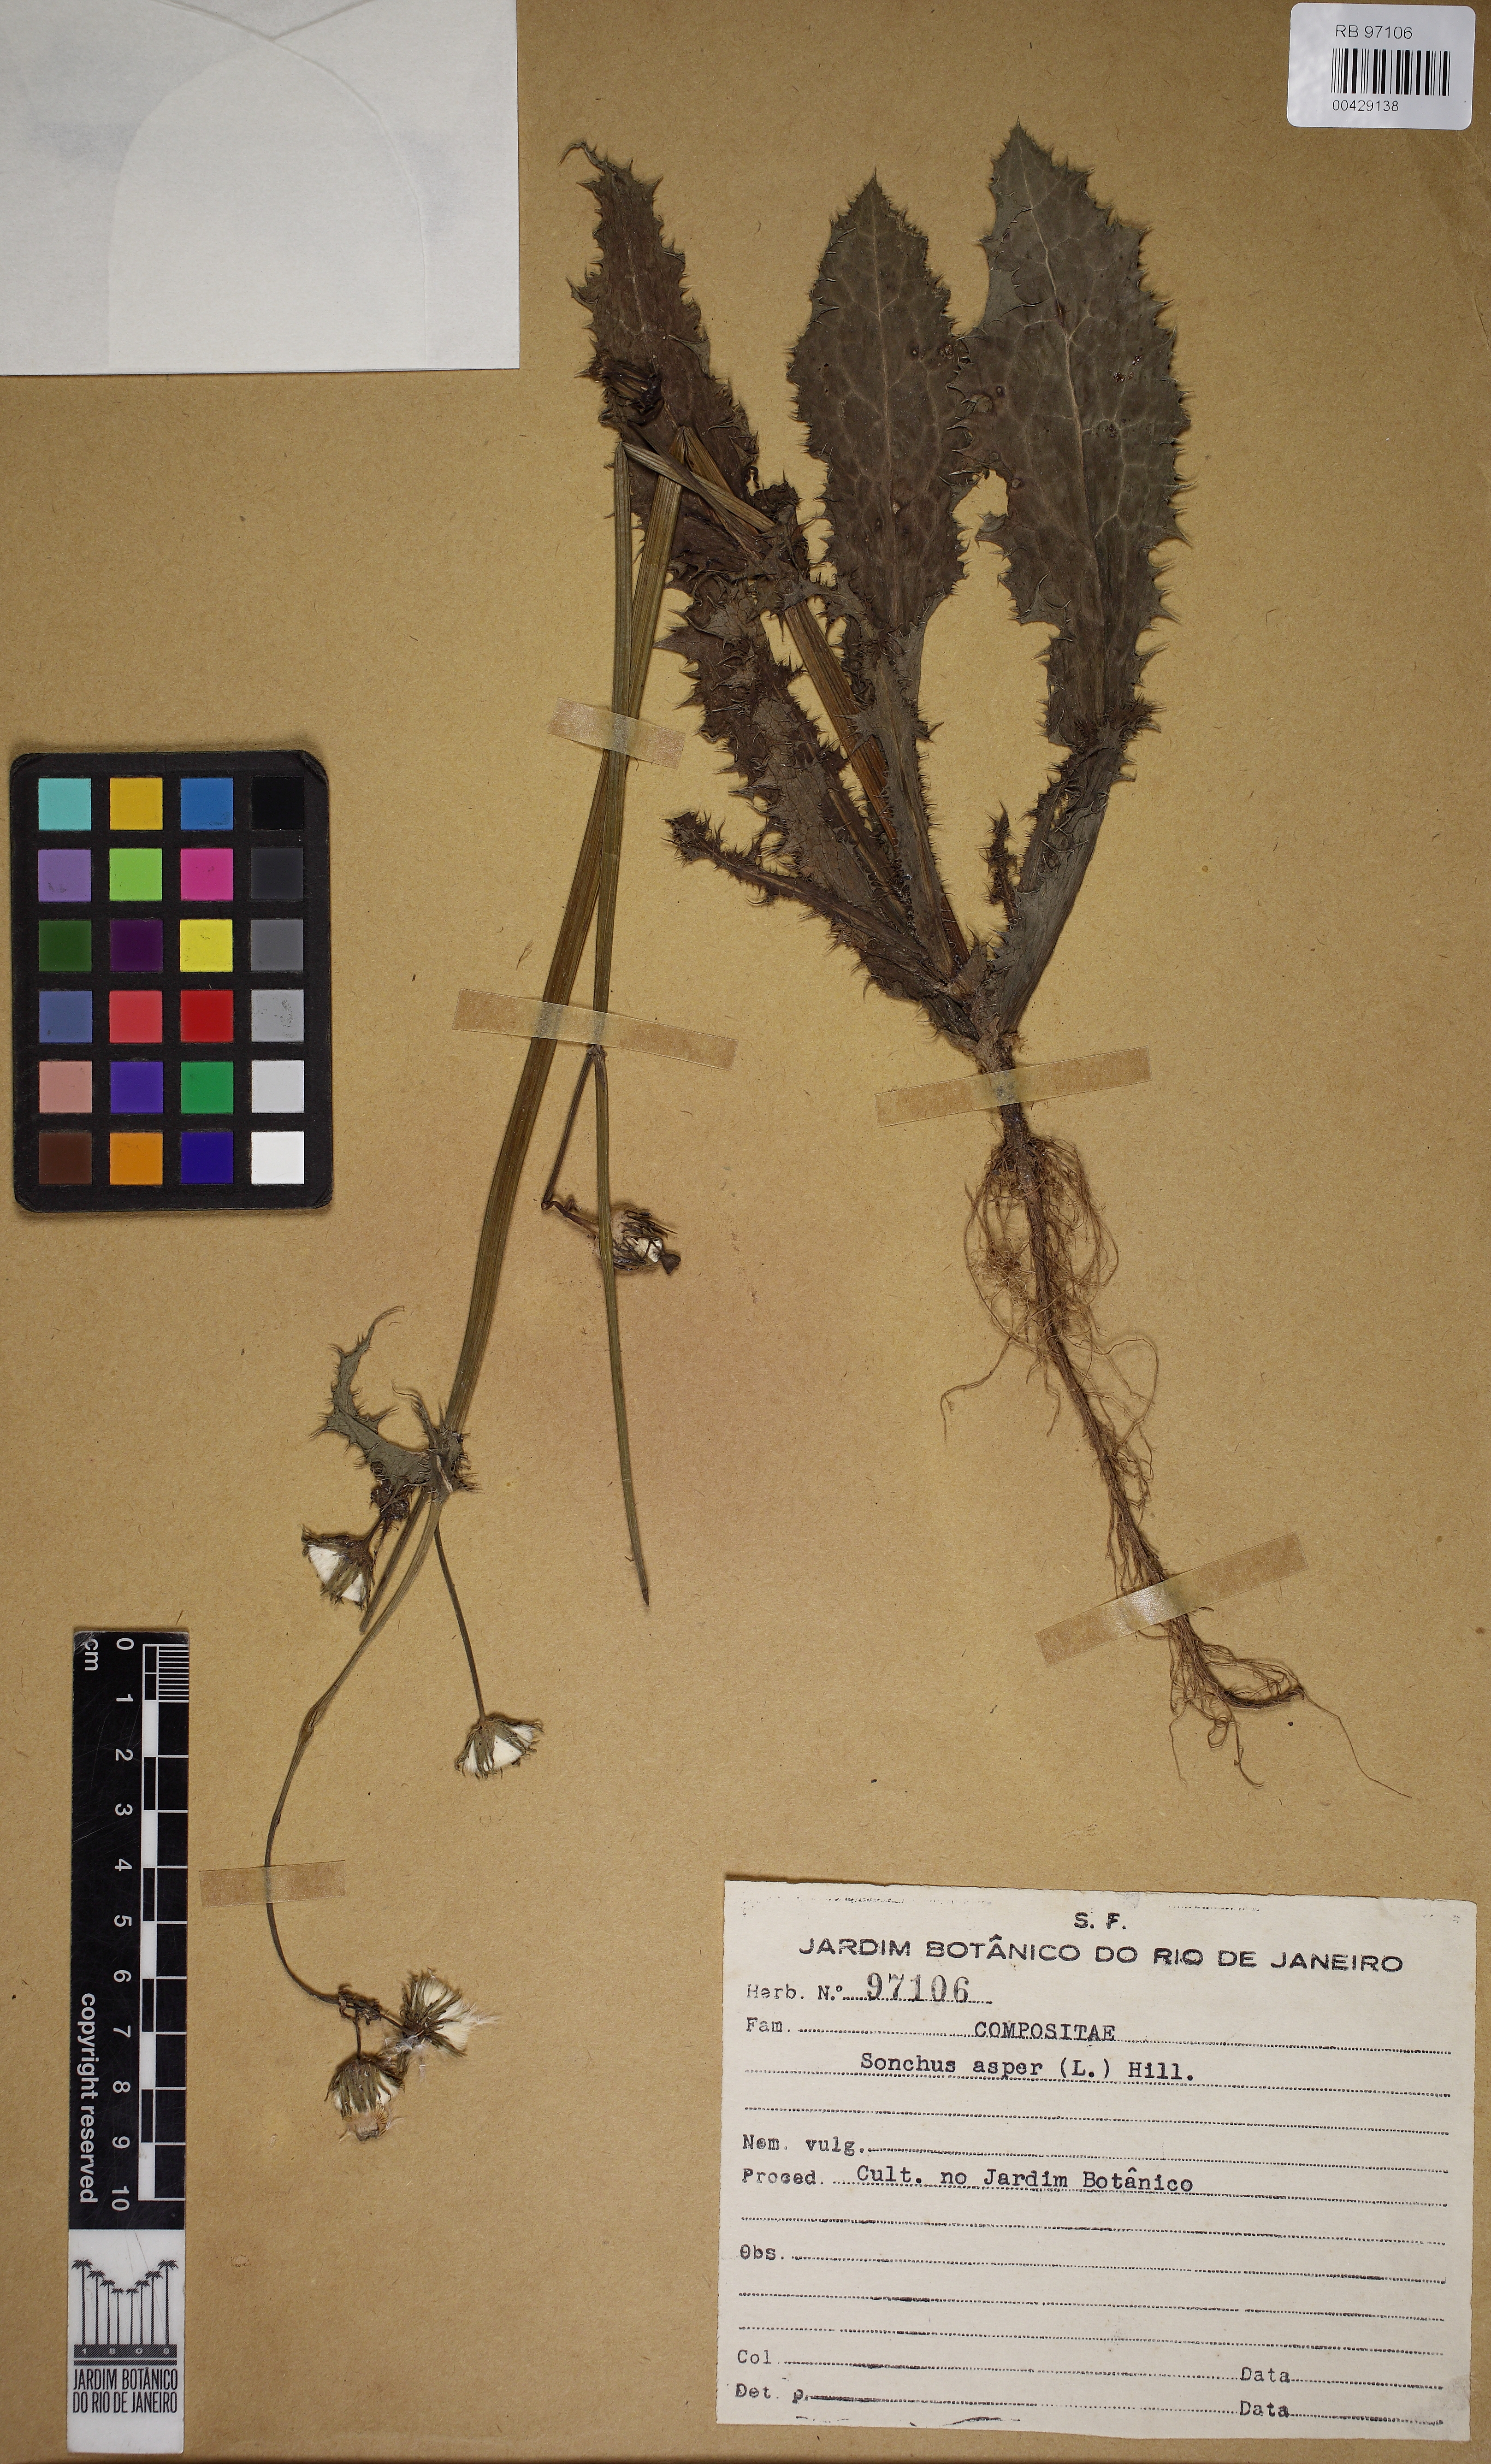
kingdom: Plantae
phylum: Tracheophyta
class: Magnoliopsida
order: Asterales
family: Asteraceae
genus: Sonchus
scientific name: Sonchus asper
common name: Prickly sow-thistle
